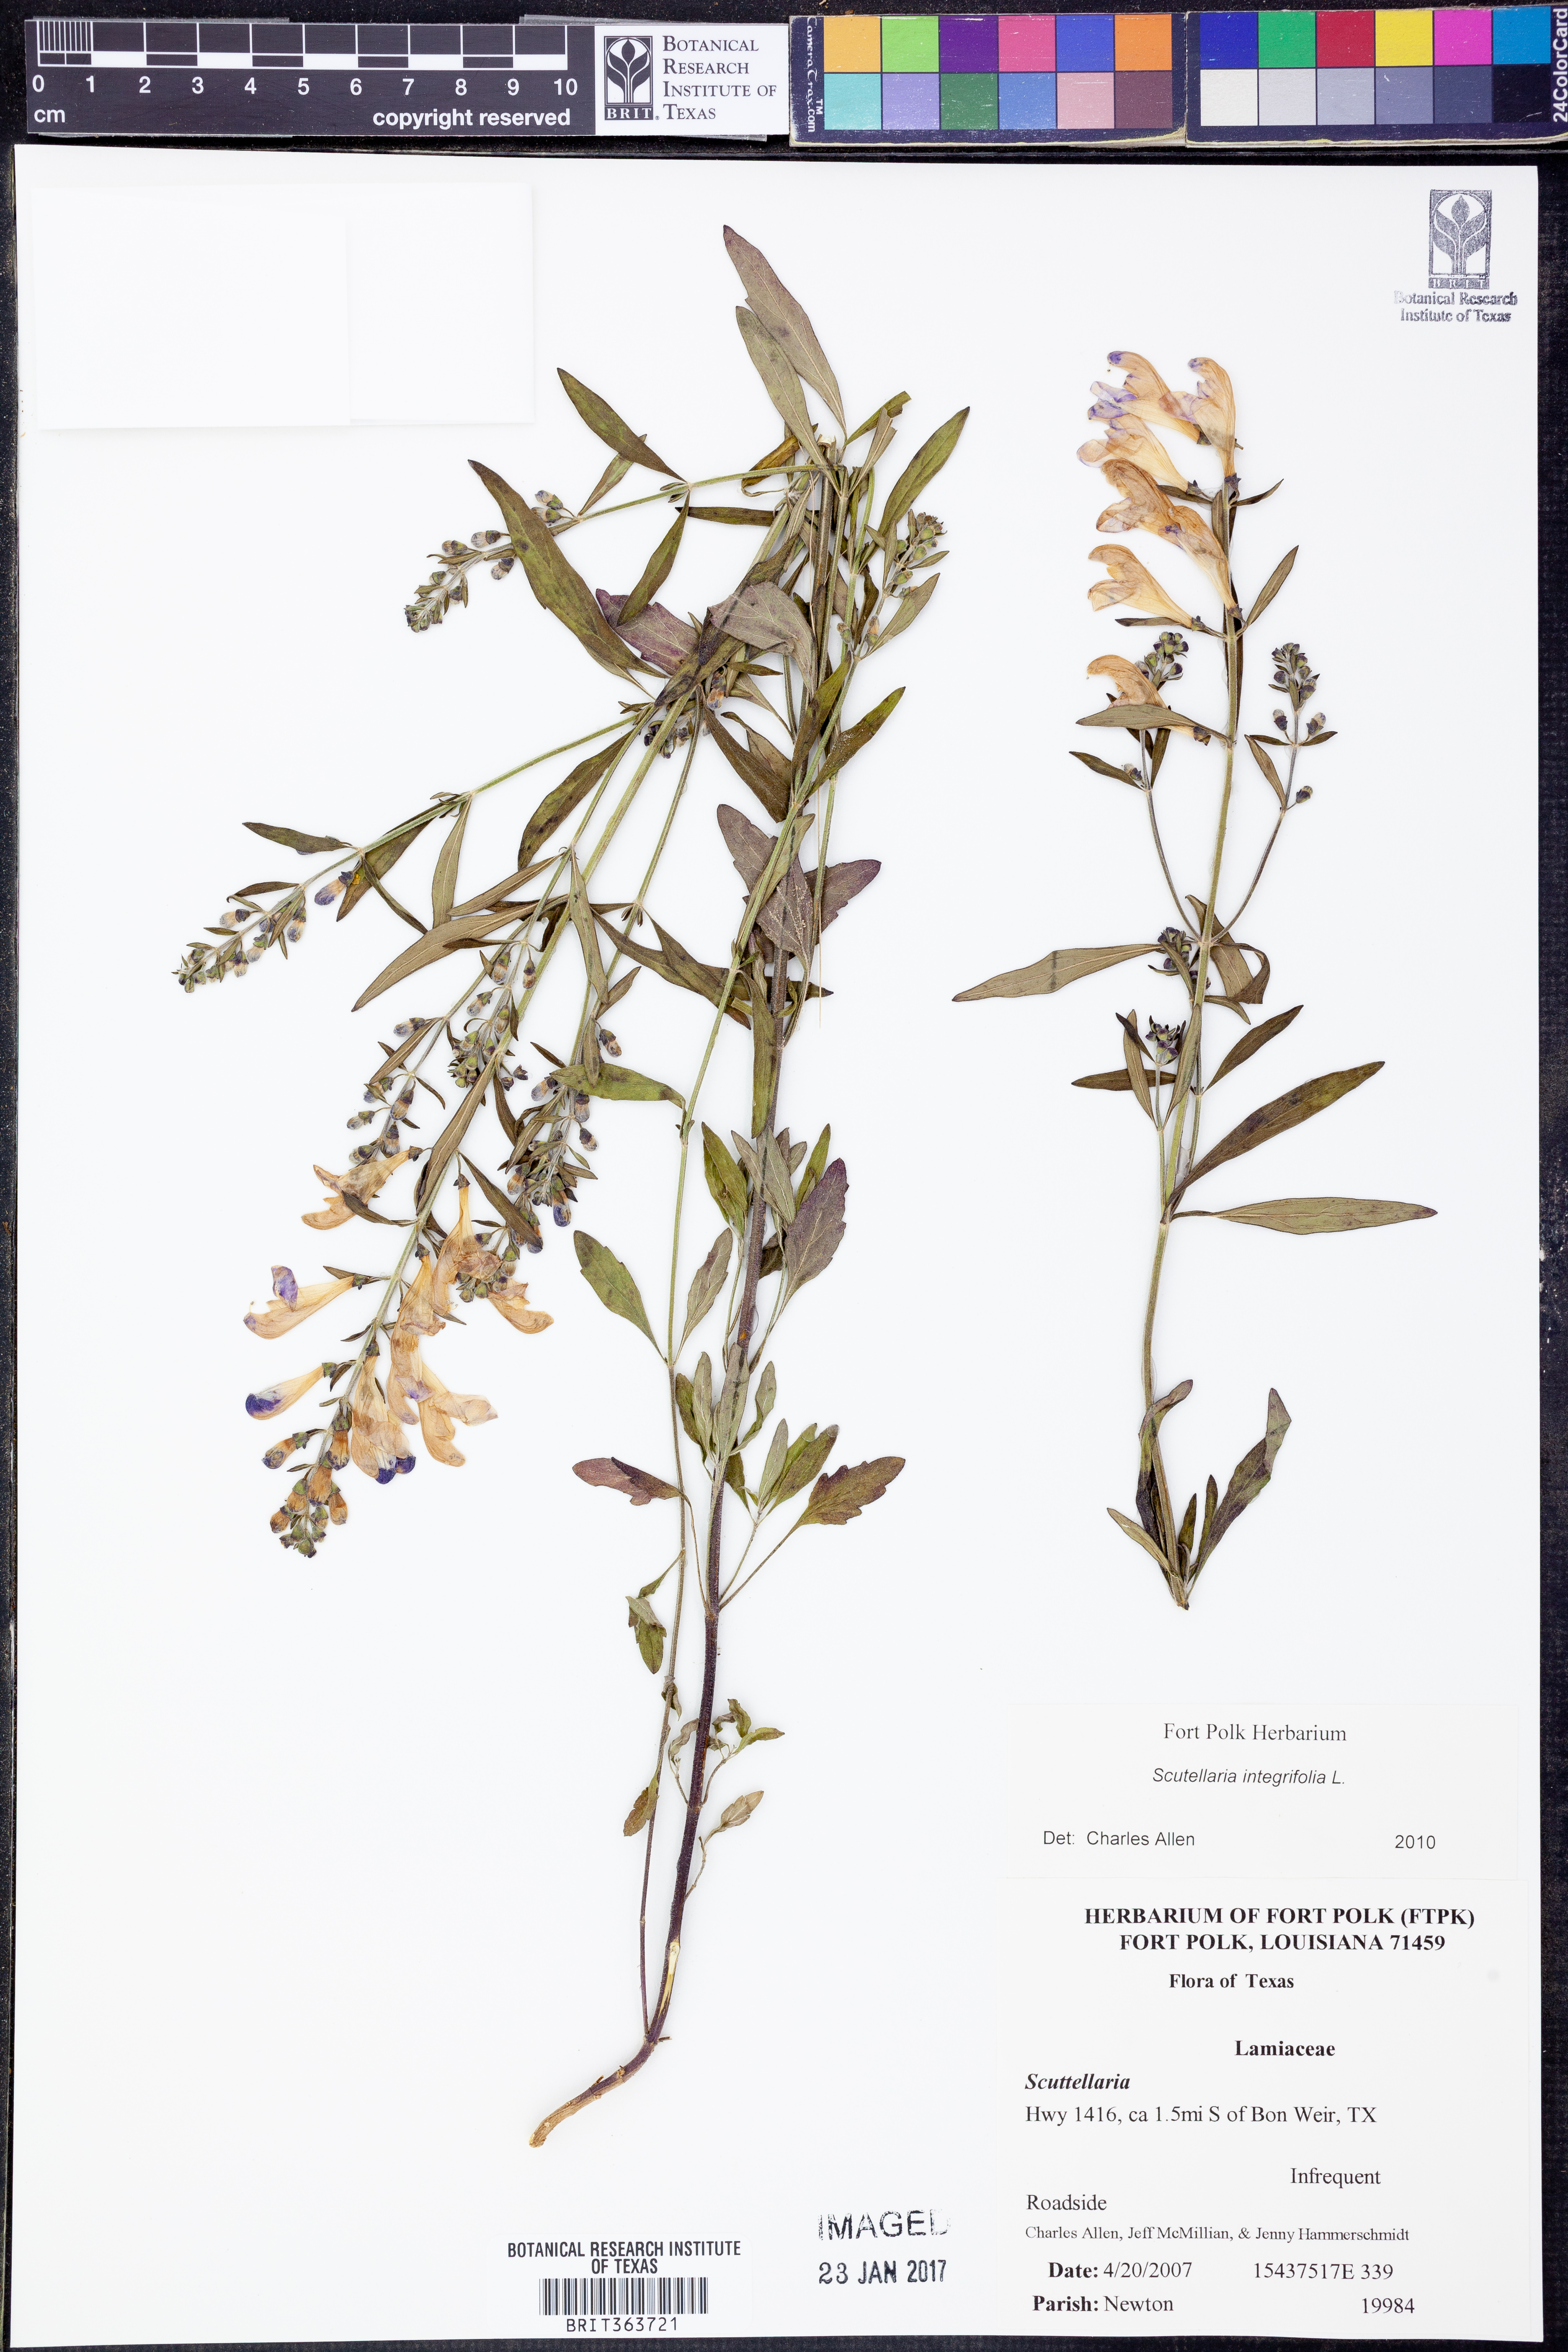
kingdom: Plantae
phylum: Tracheophyta
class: Magnoliopsida
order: Lamiales
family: Lamiaceae
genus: Scutellaria
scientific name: Scutellaria integrifolia
